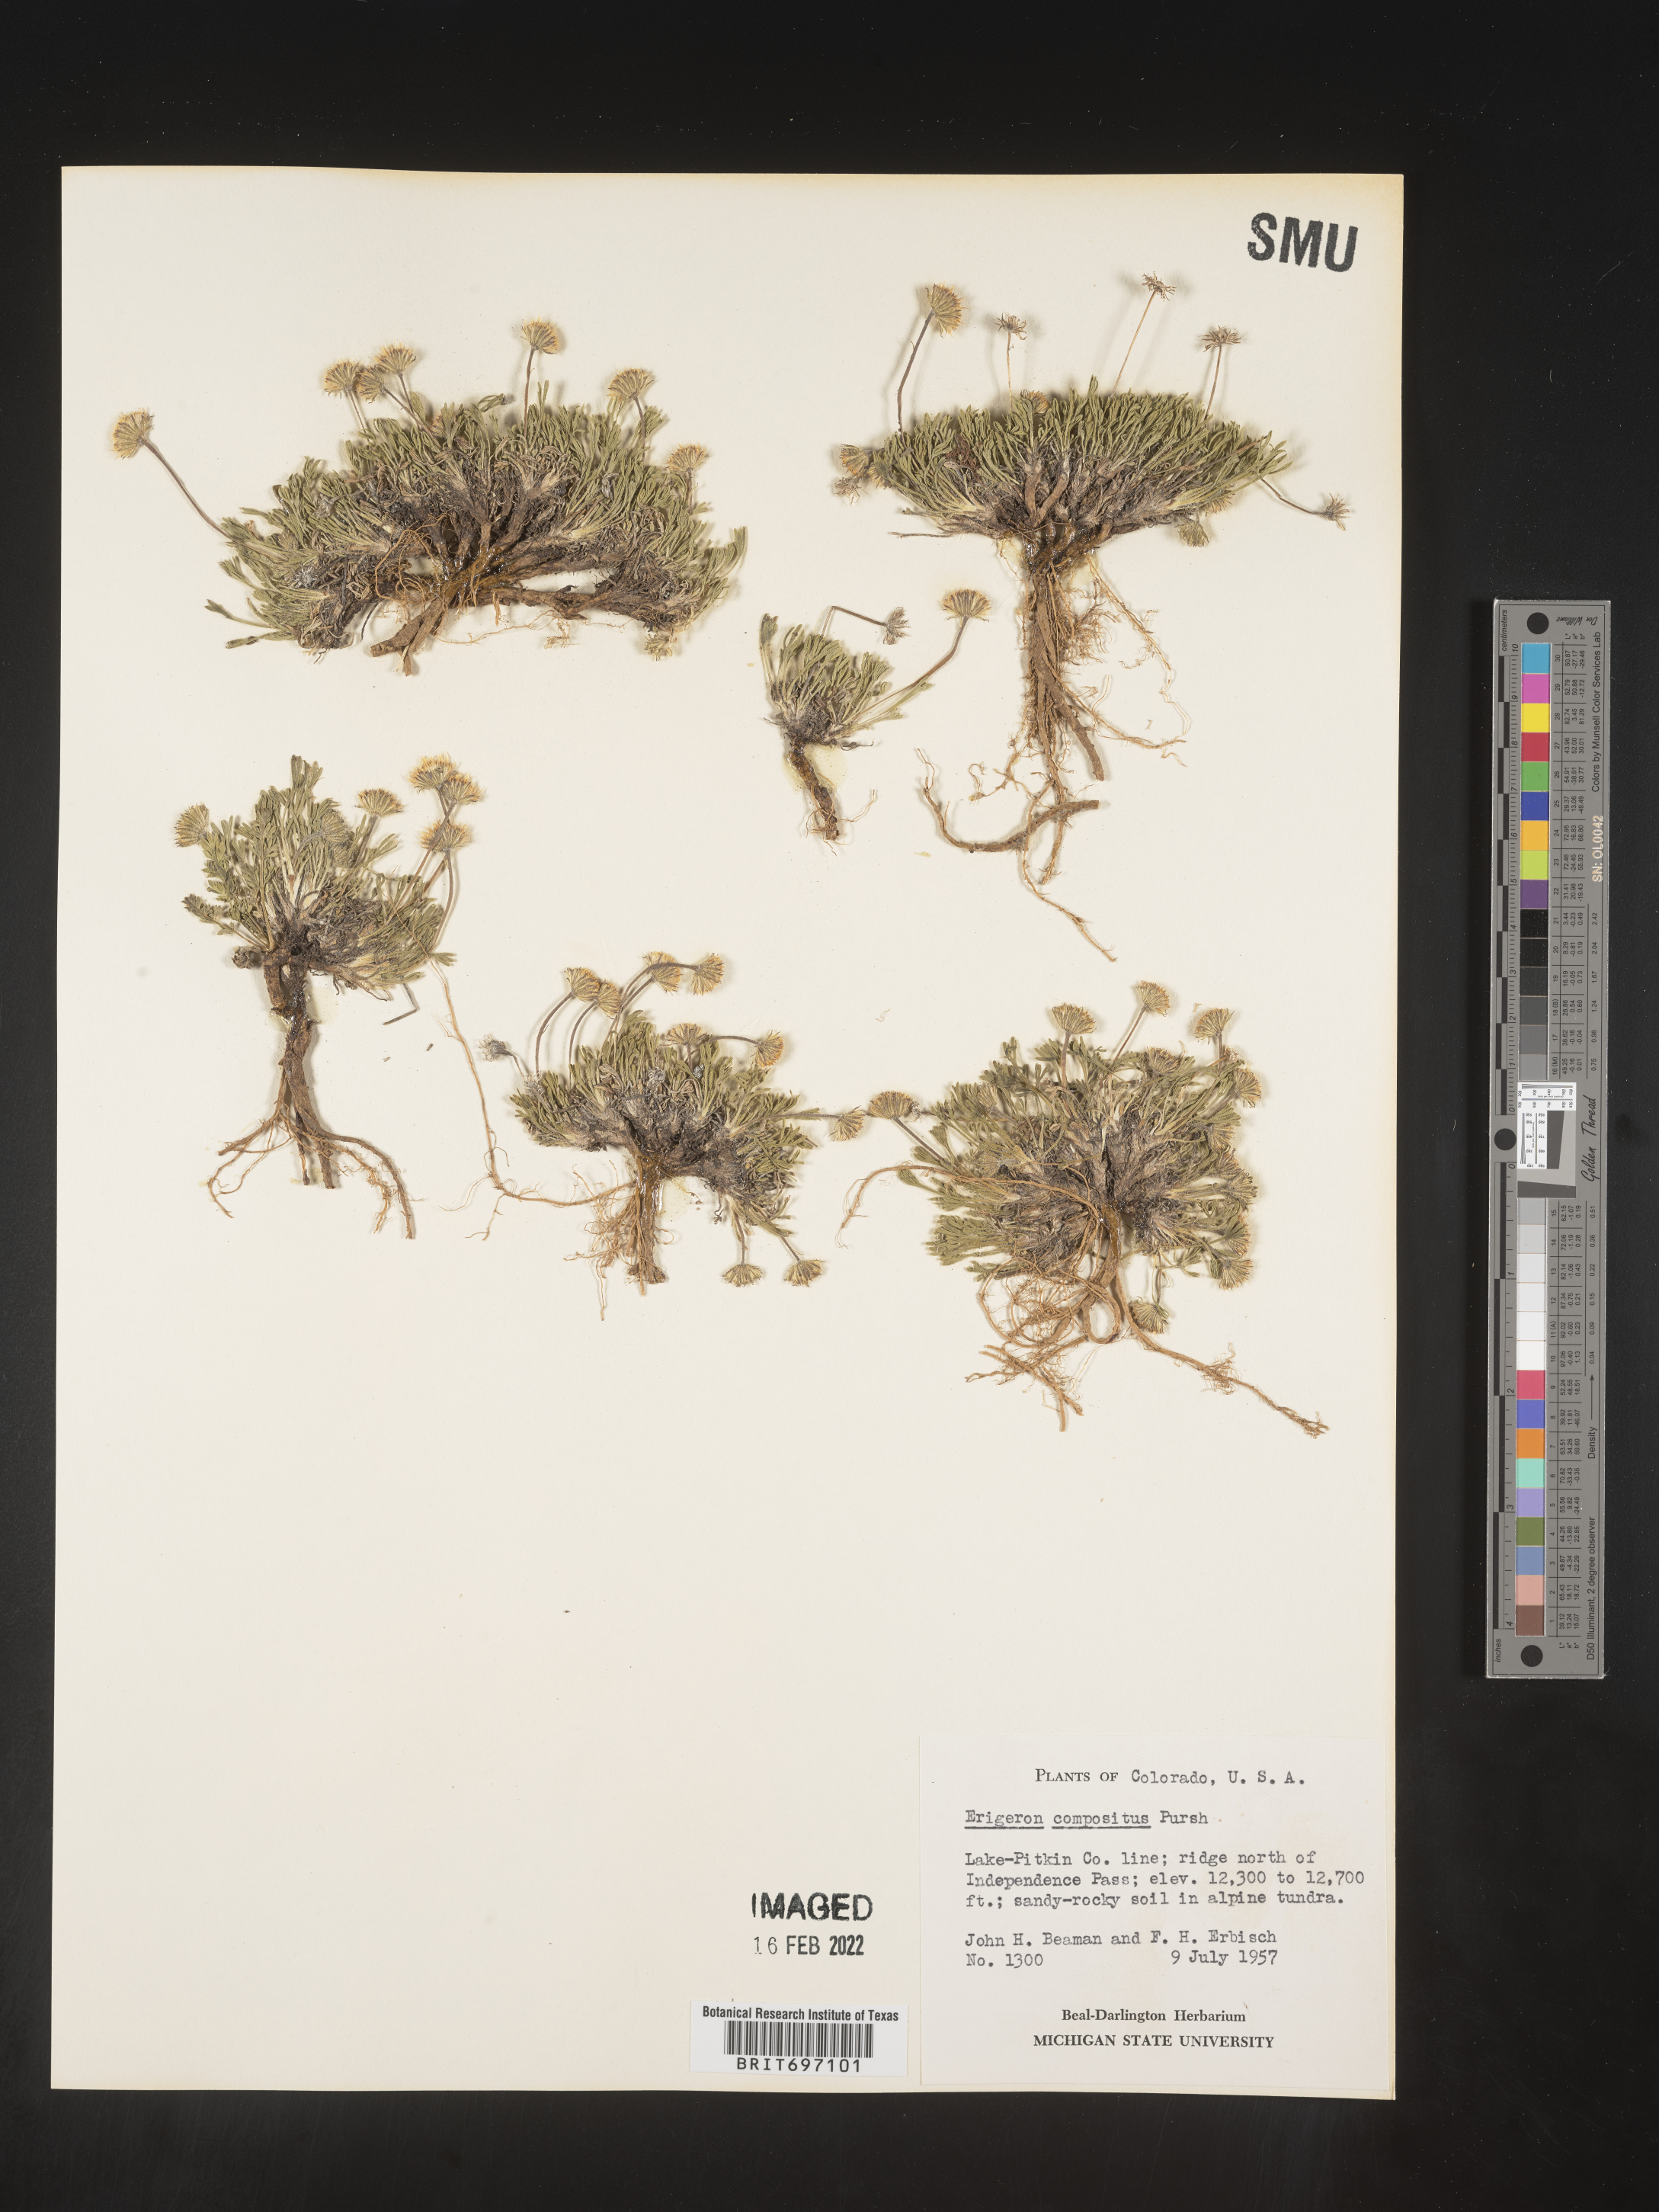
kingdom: Plantae
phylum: Tracheophyta
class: Magnoliopsida
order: Asterales
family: Asteraceae
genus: Erigeron
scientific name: Erigeron compositus
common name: Dwarf mountain fleabane
